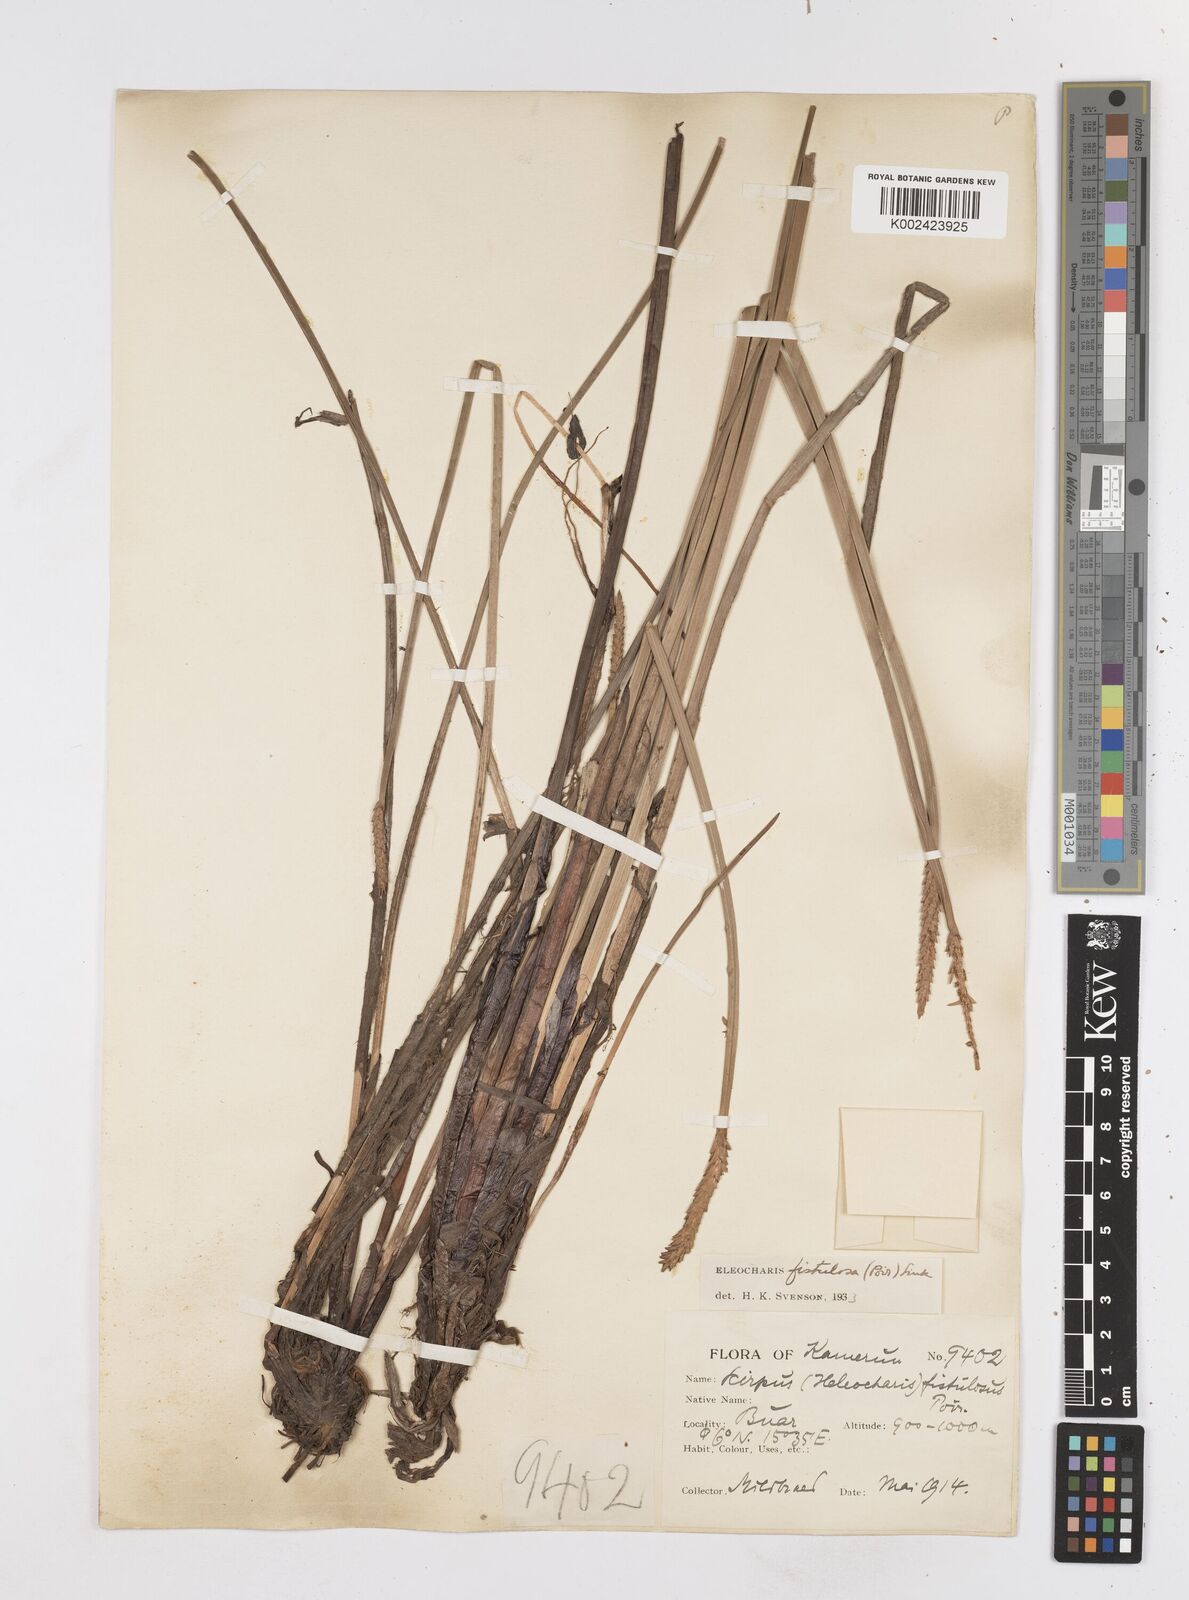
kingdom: Plantae
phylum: Tracheophyta
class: Liliopsida
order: Poales
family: Cyperaceae
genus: Eleocharis
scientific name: Eleocharis acutangula
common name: Acute spikerush
